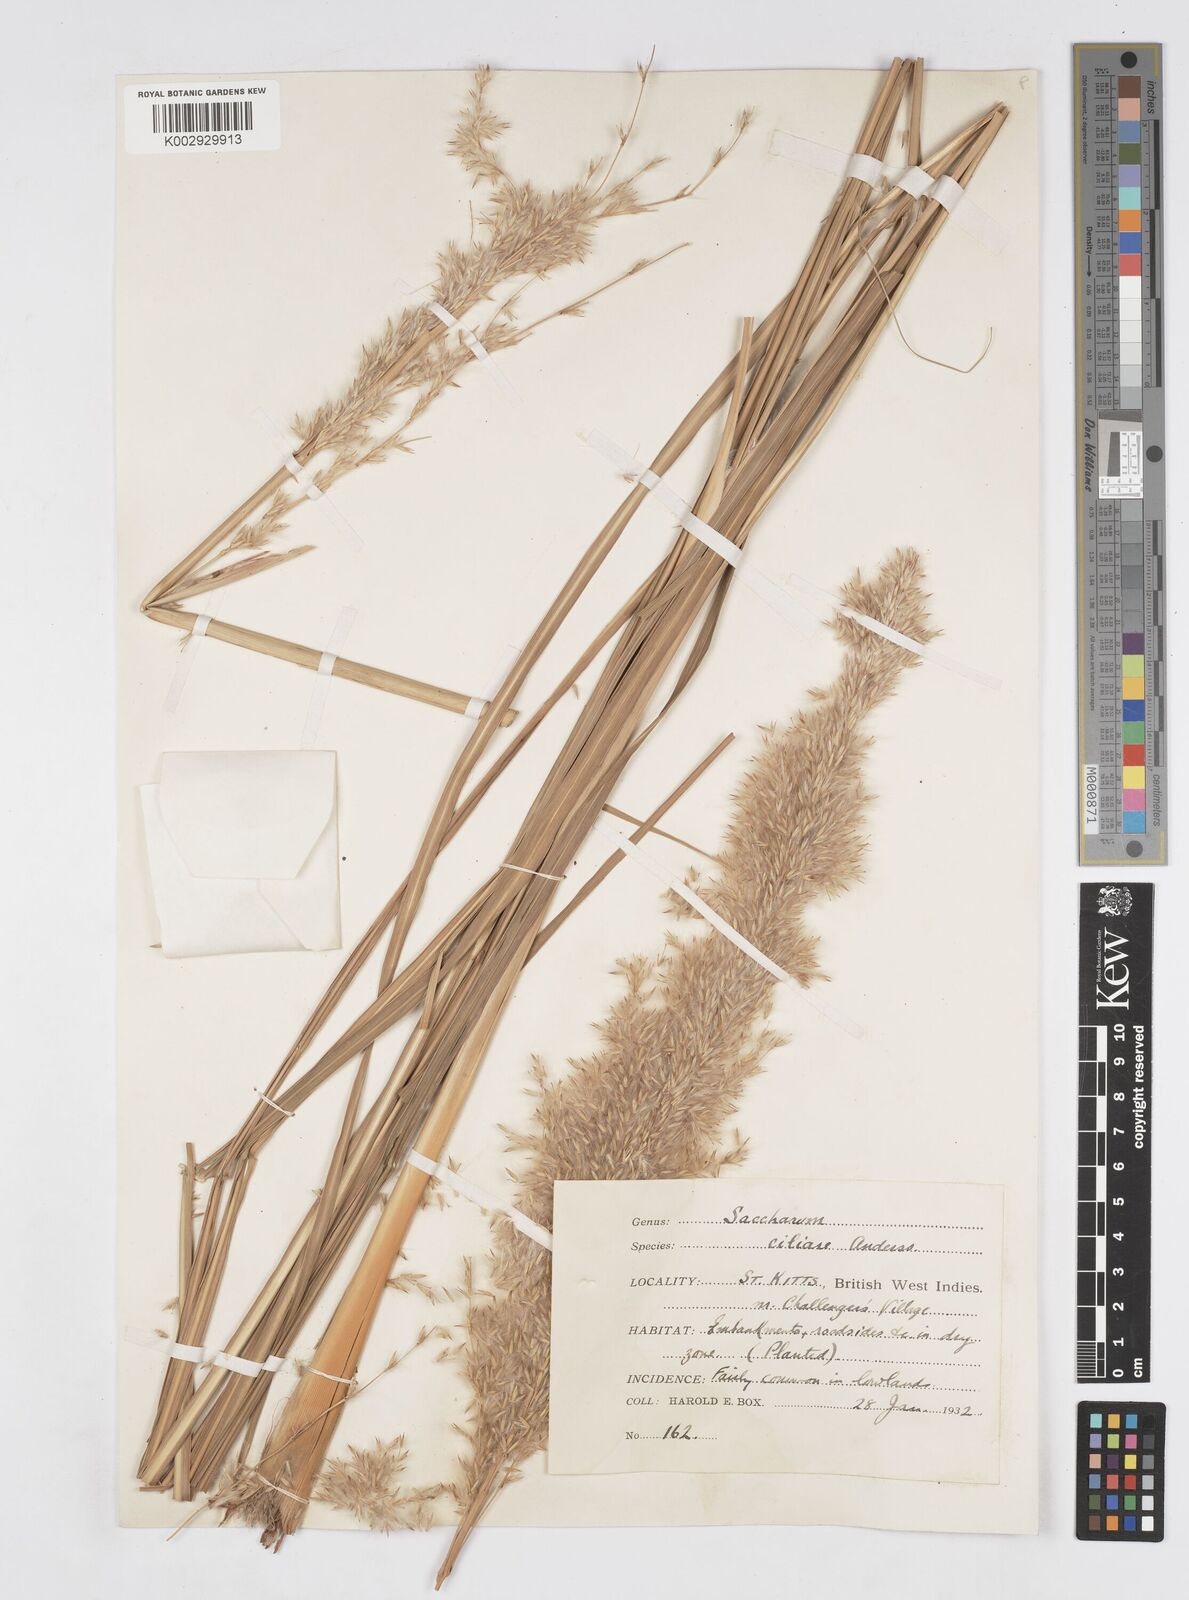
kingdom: Plantae
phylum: Tracheophyta
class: Liliopsida
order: Poales
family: Poaceae
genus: Erianthus
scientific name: Erianthus trinii
